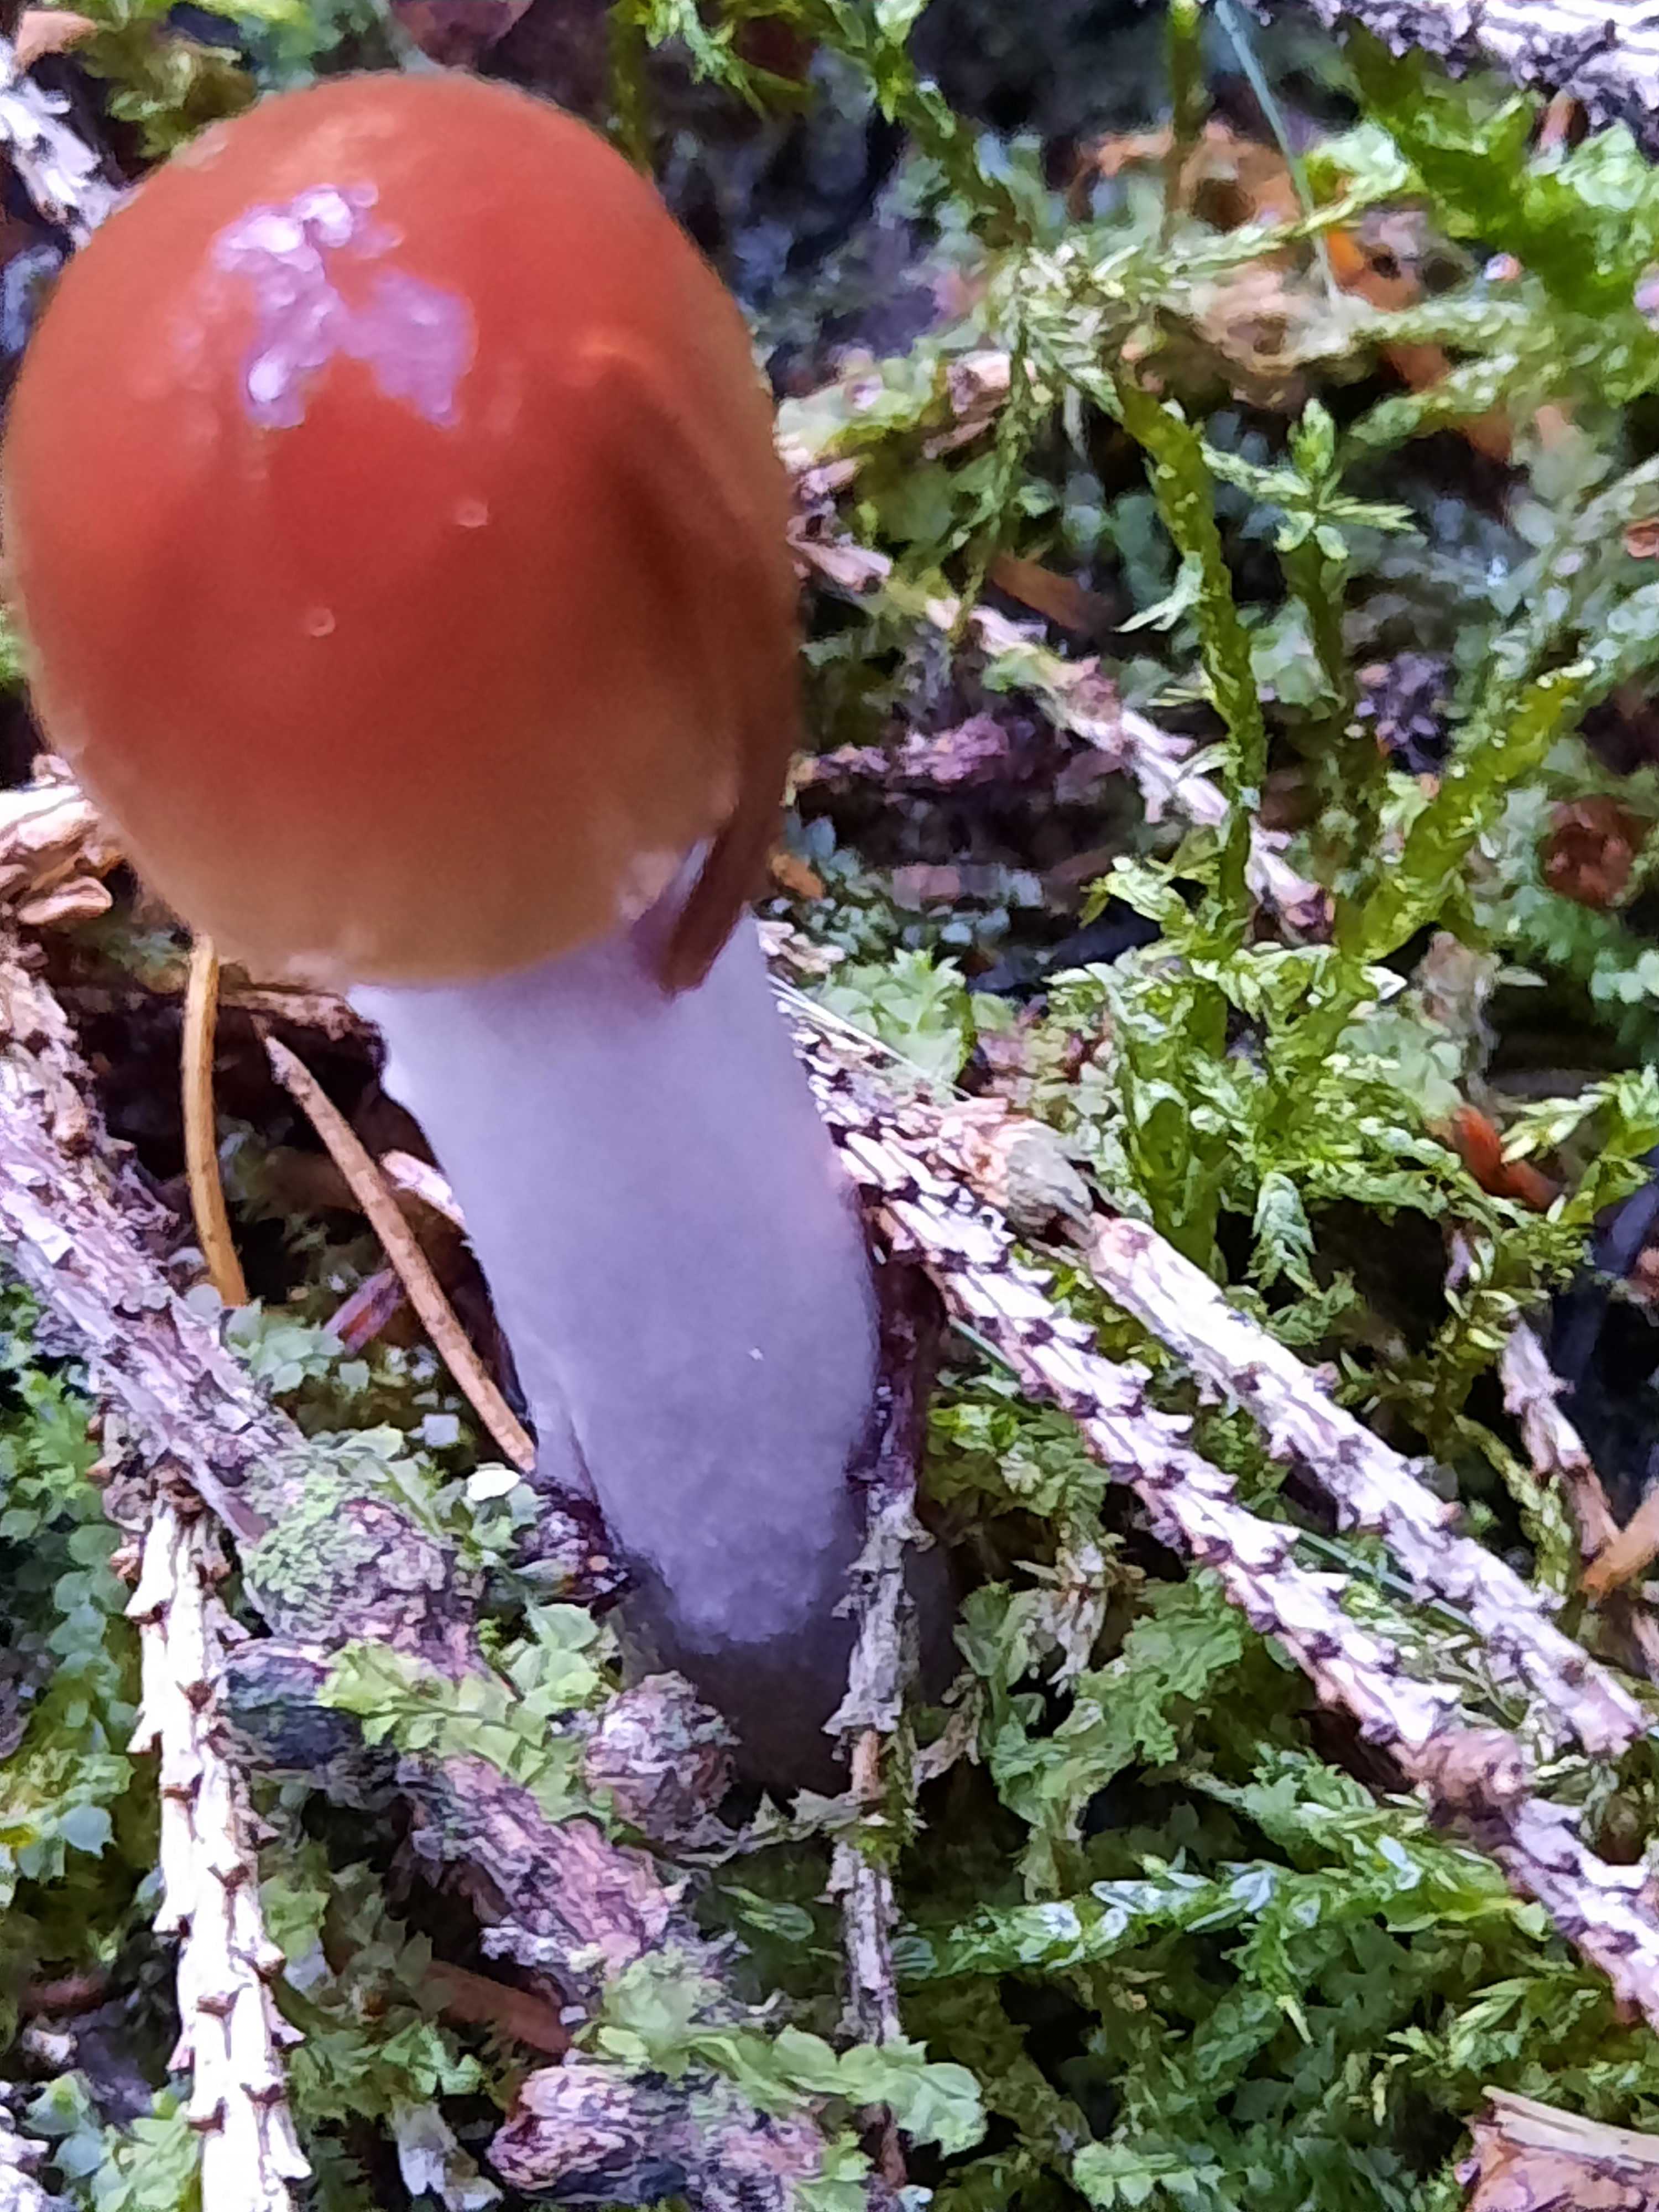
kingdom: Fungi
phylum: Basidiomycota
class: Agaricomycetes
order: Agaricales
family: Cortinariaceae
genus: Cortinarius
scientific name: Cortinarius collinitus
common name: spættet slørhat
